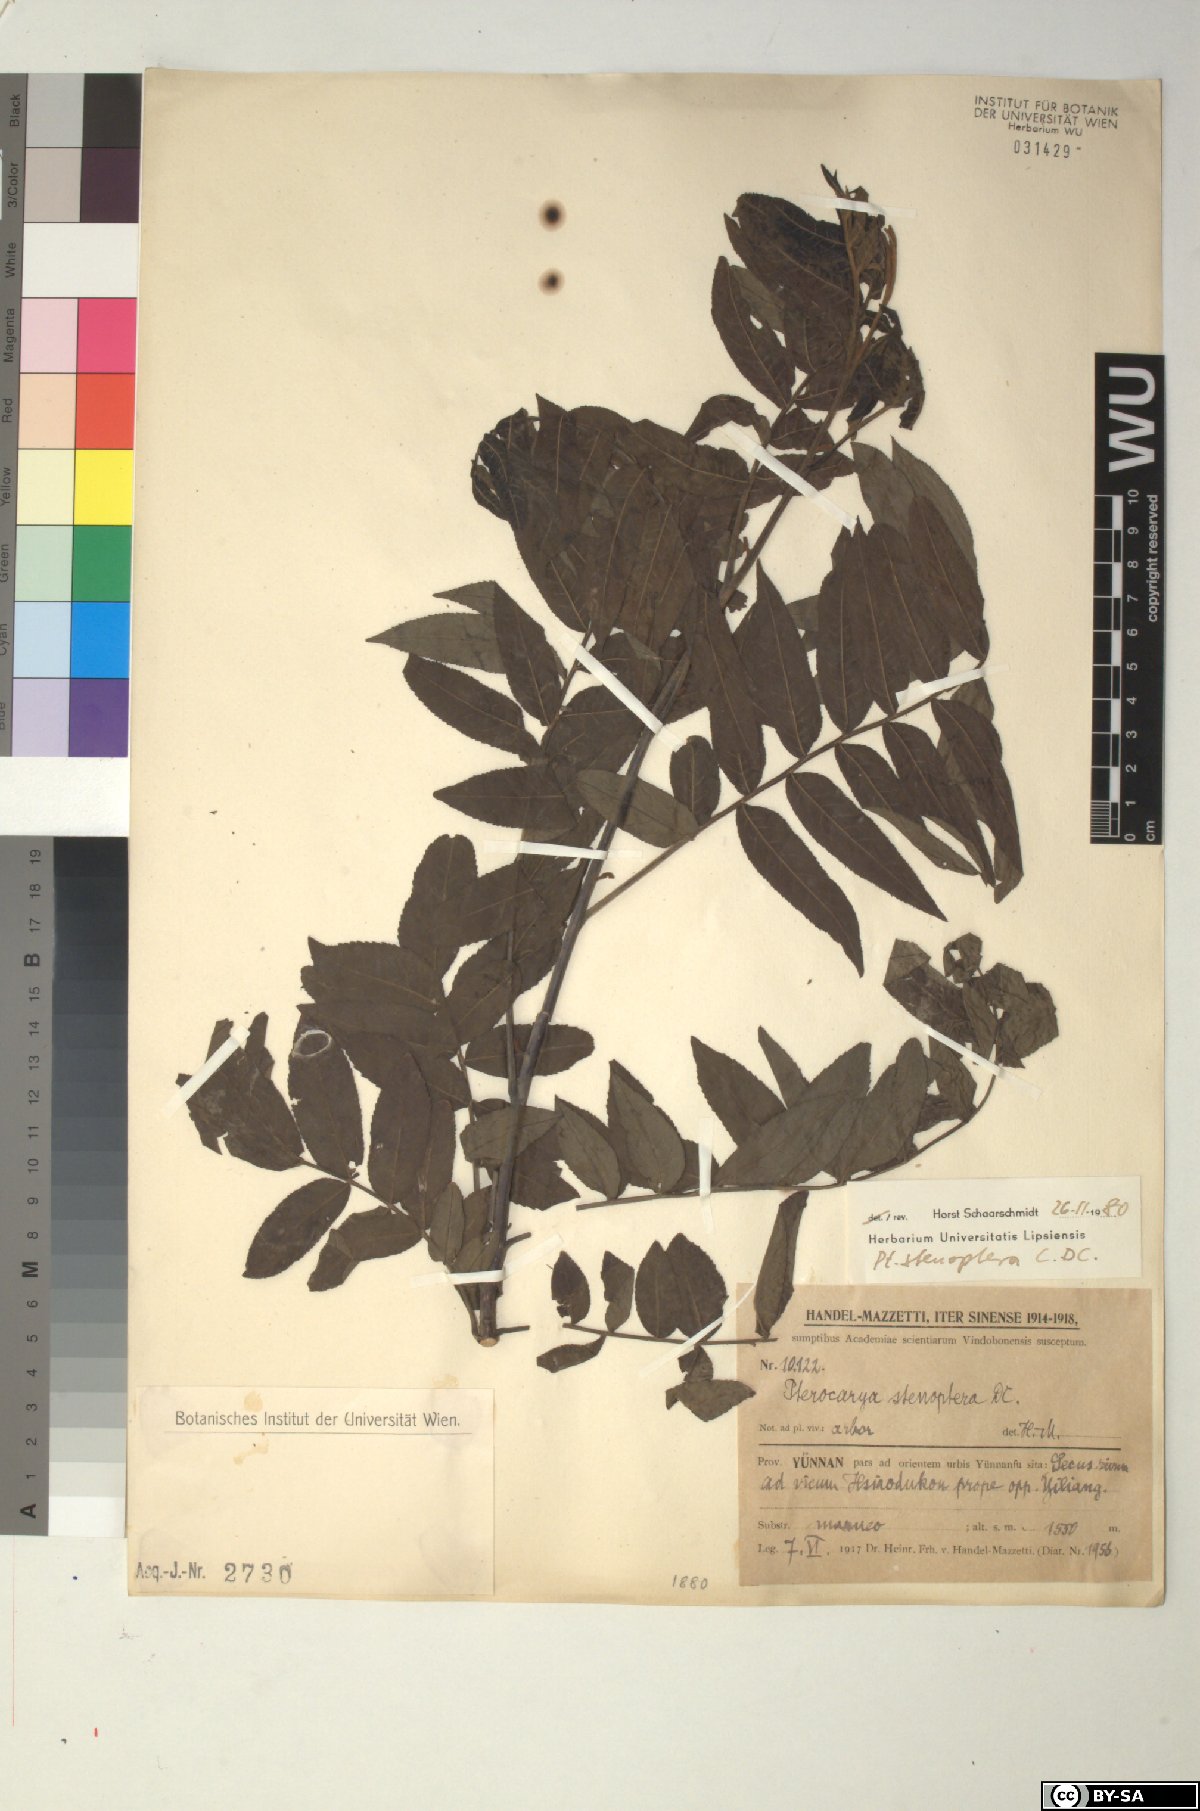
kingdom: Plantae
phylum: Tracheophyta
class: Magnoliopsida
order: Fagales
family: Juglandaceae
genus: Pterocarya
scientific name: Pterocarya stenoptera
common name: Chinese wingnut
